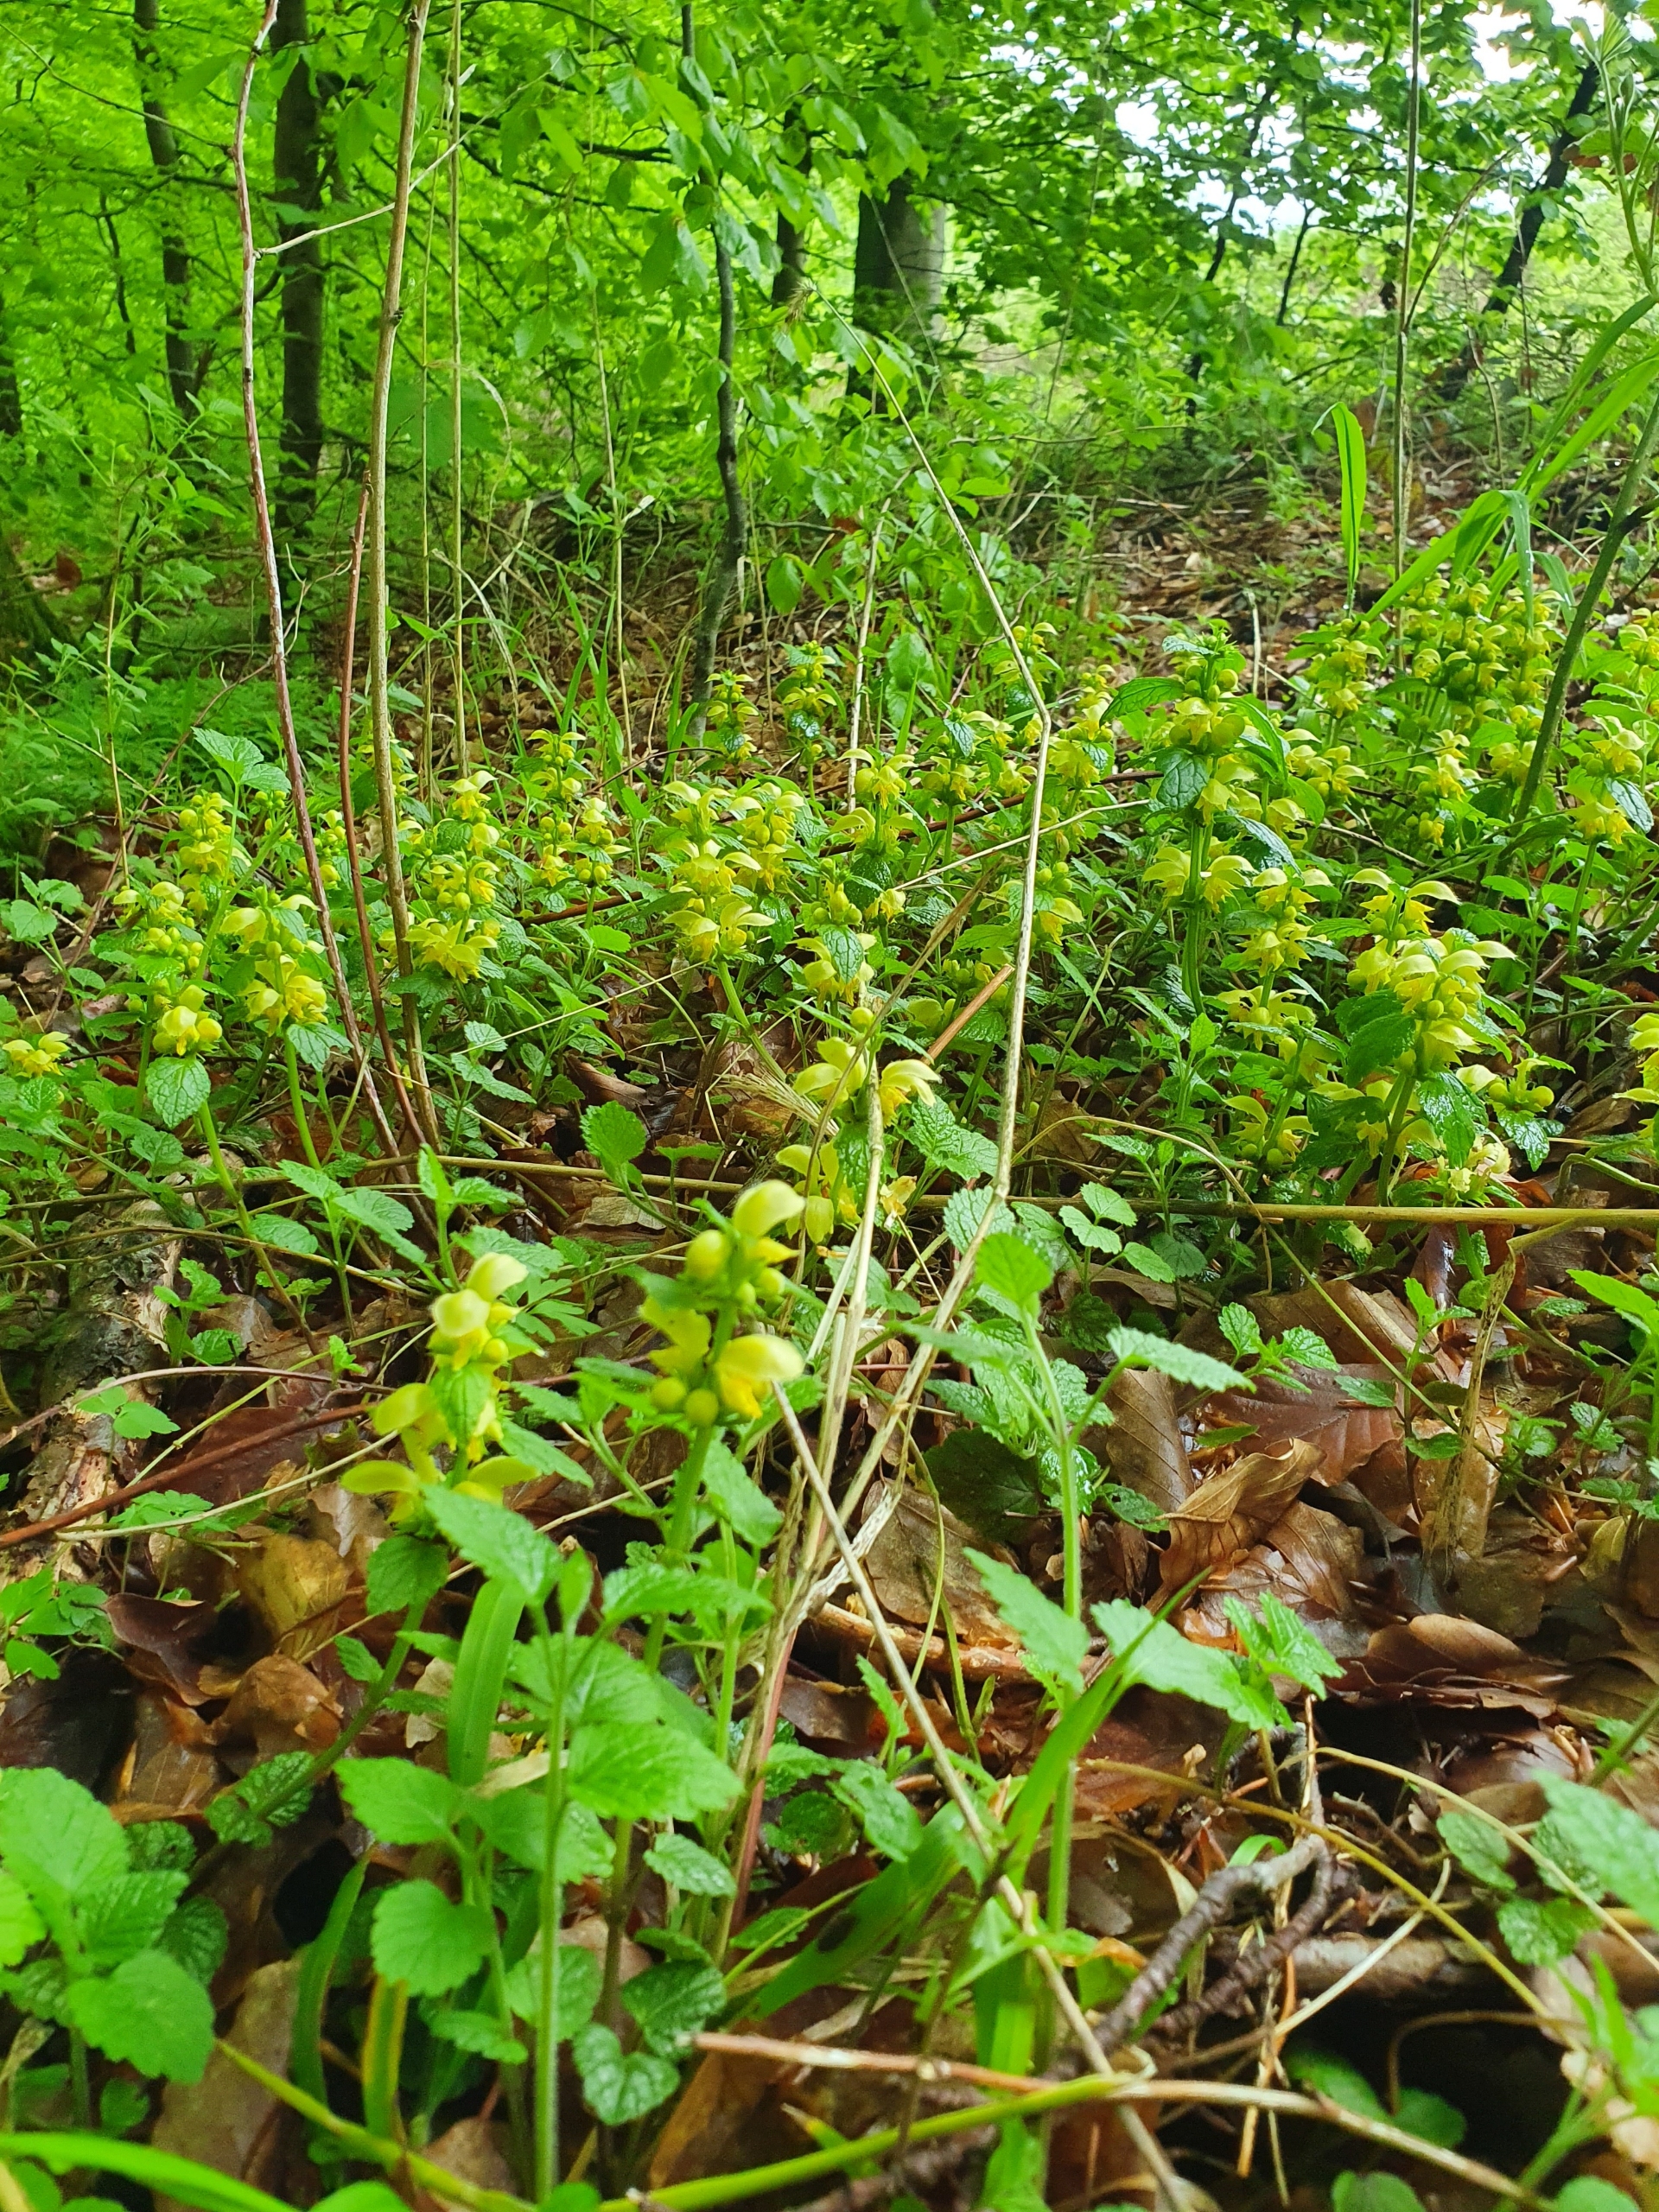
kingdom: Plantae
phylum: Tracheophyta
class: Magnoliopsida
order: Lamiales
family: Lamiaceae
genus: Lamium
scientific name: Lamium galeobdolon
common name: Guldnælde
